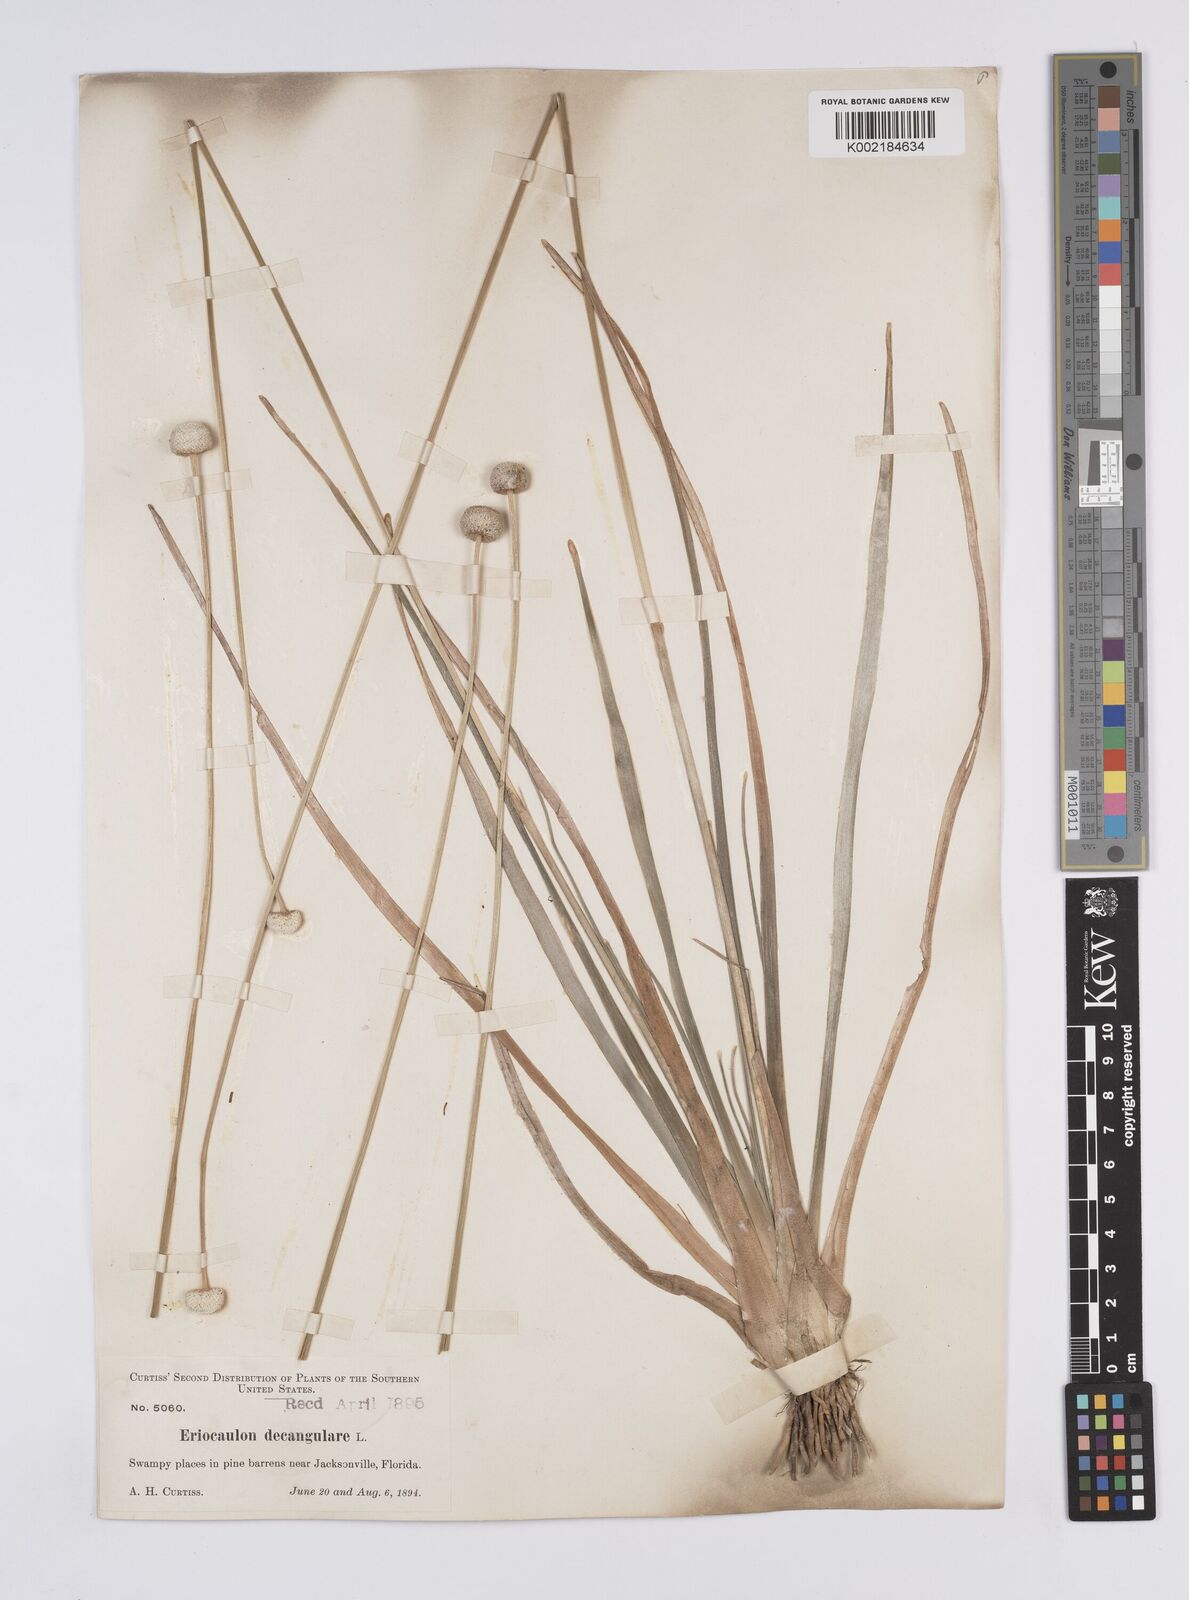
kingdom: Plantae
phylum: Tracheophyta
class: Liliopsida
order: Poales
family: Eriocaulaceae
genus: Eriocaulon
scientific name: Eriocaulon decangulare
